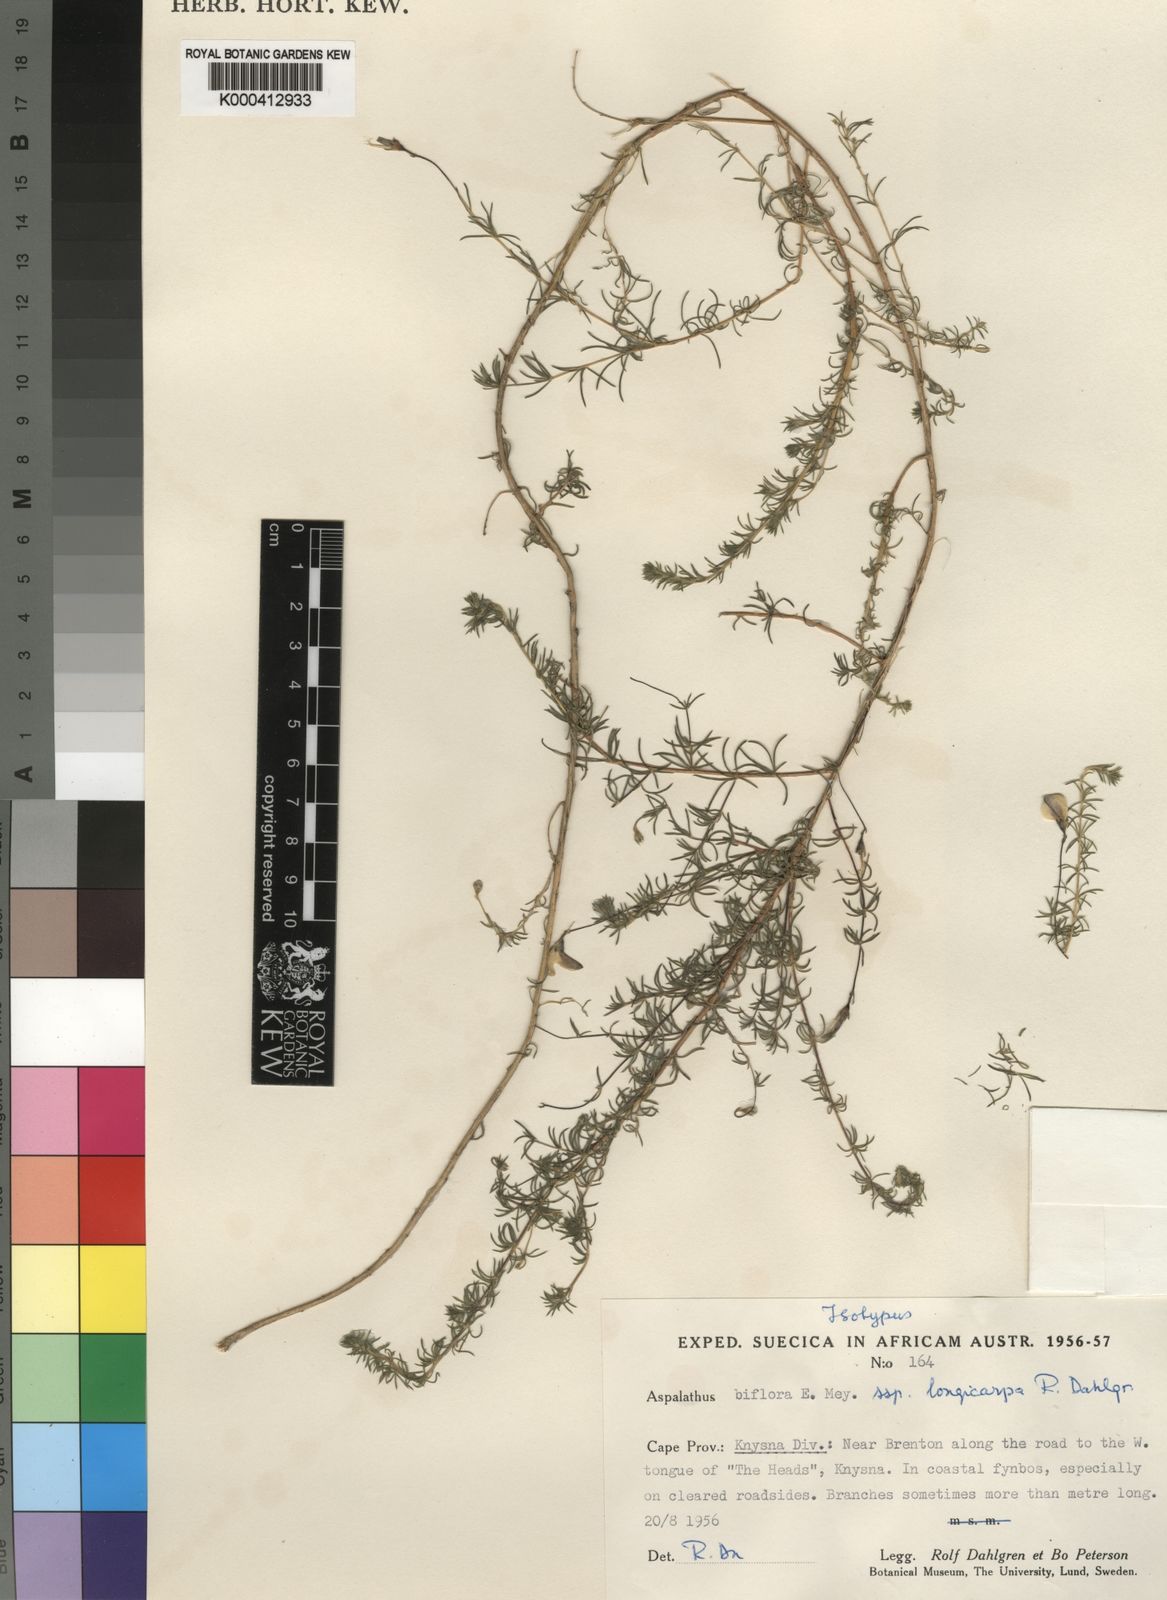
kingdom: Plantae
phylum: Tracheophyta
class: Magnoliopsida
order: Fabales
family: Fabaceae
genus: Aspalathus
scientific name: Aspalathus biflora
